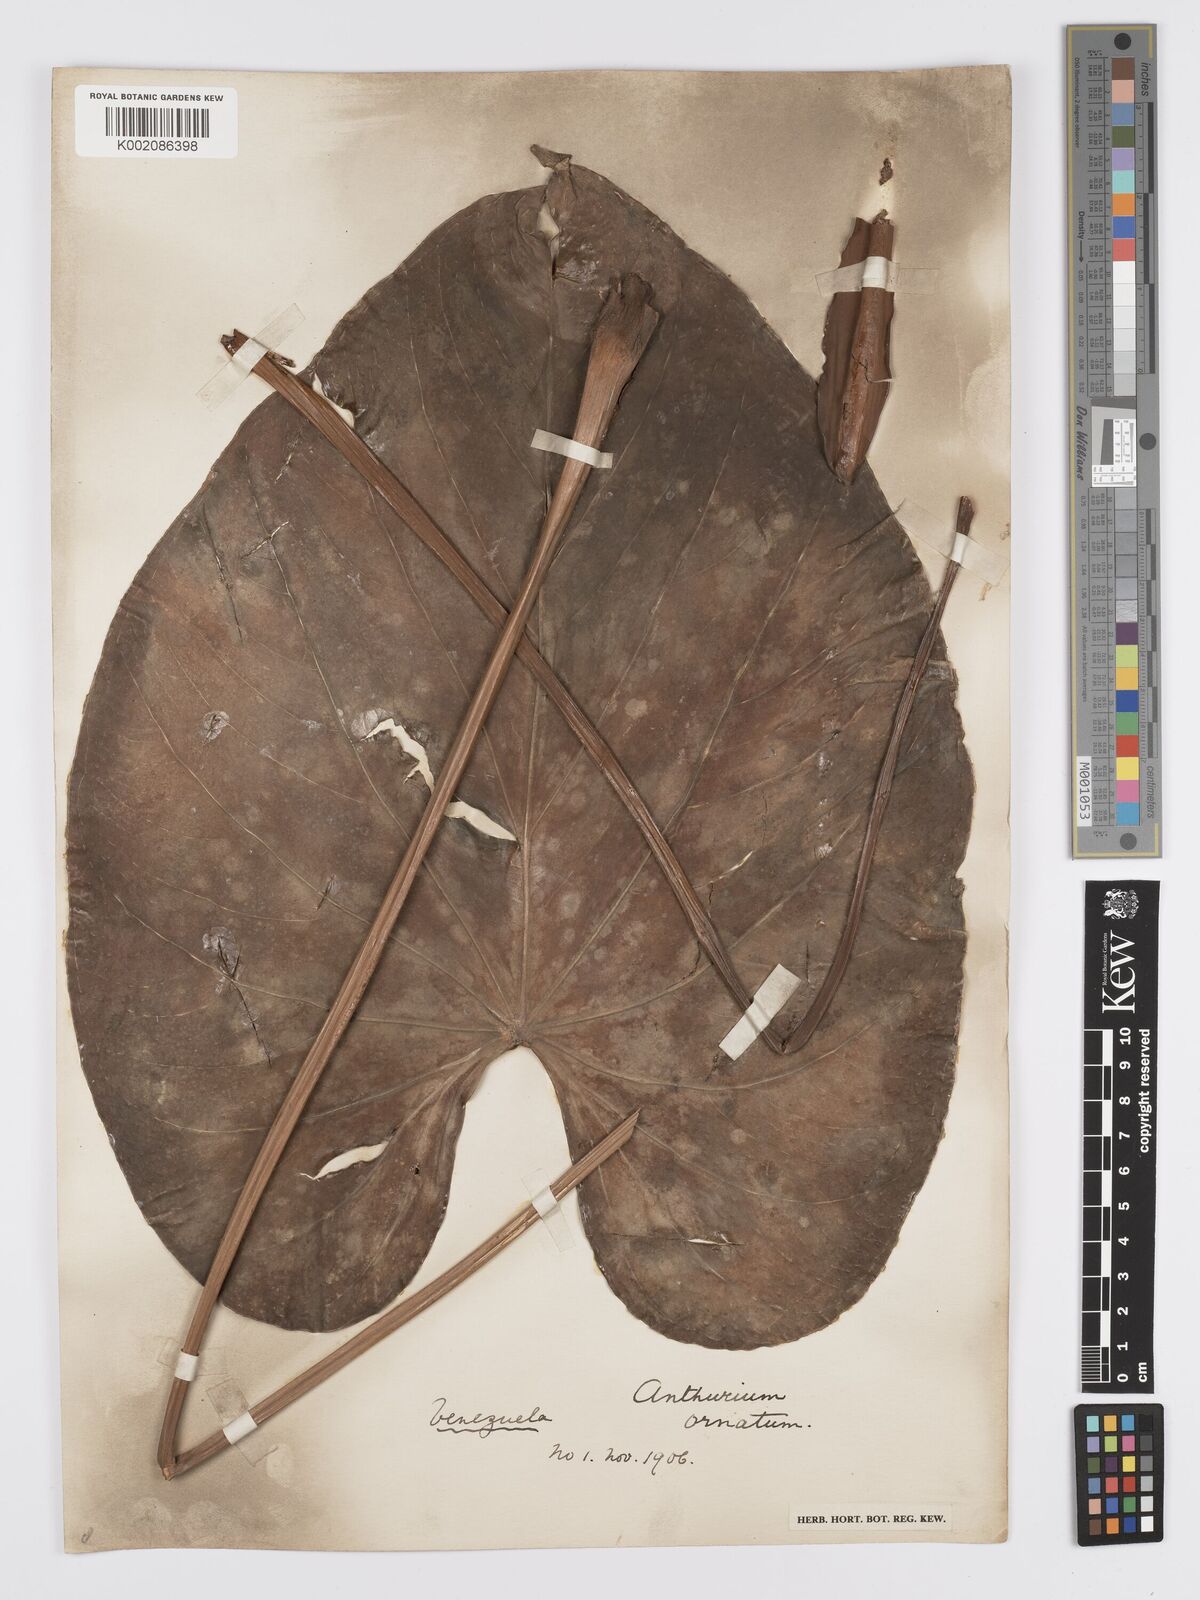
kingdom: Plantae
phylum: Tracheophyta
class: Liliopsida
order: Alismatales
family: Araceae
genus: Anthurium
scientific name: Anthurium lindenianum
